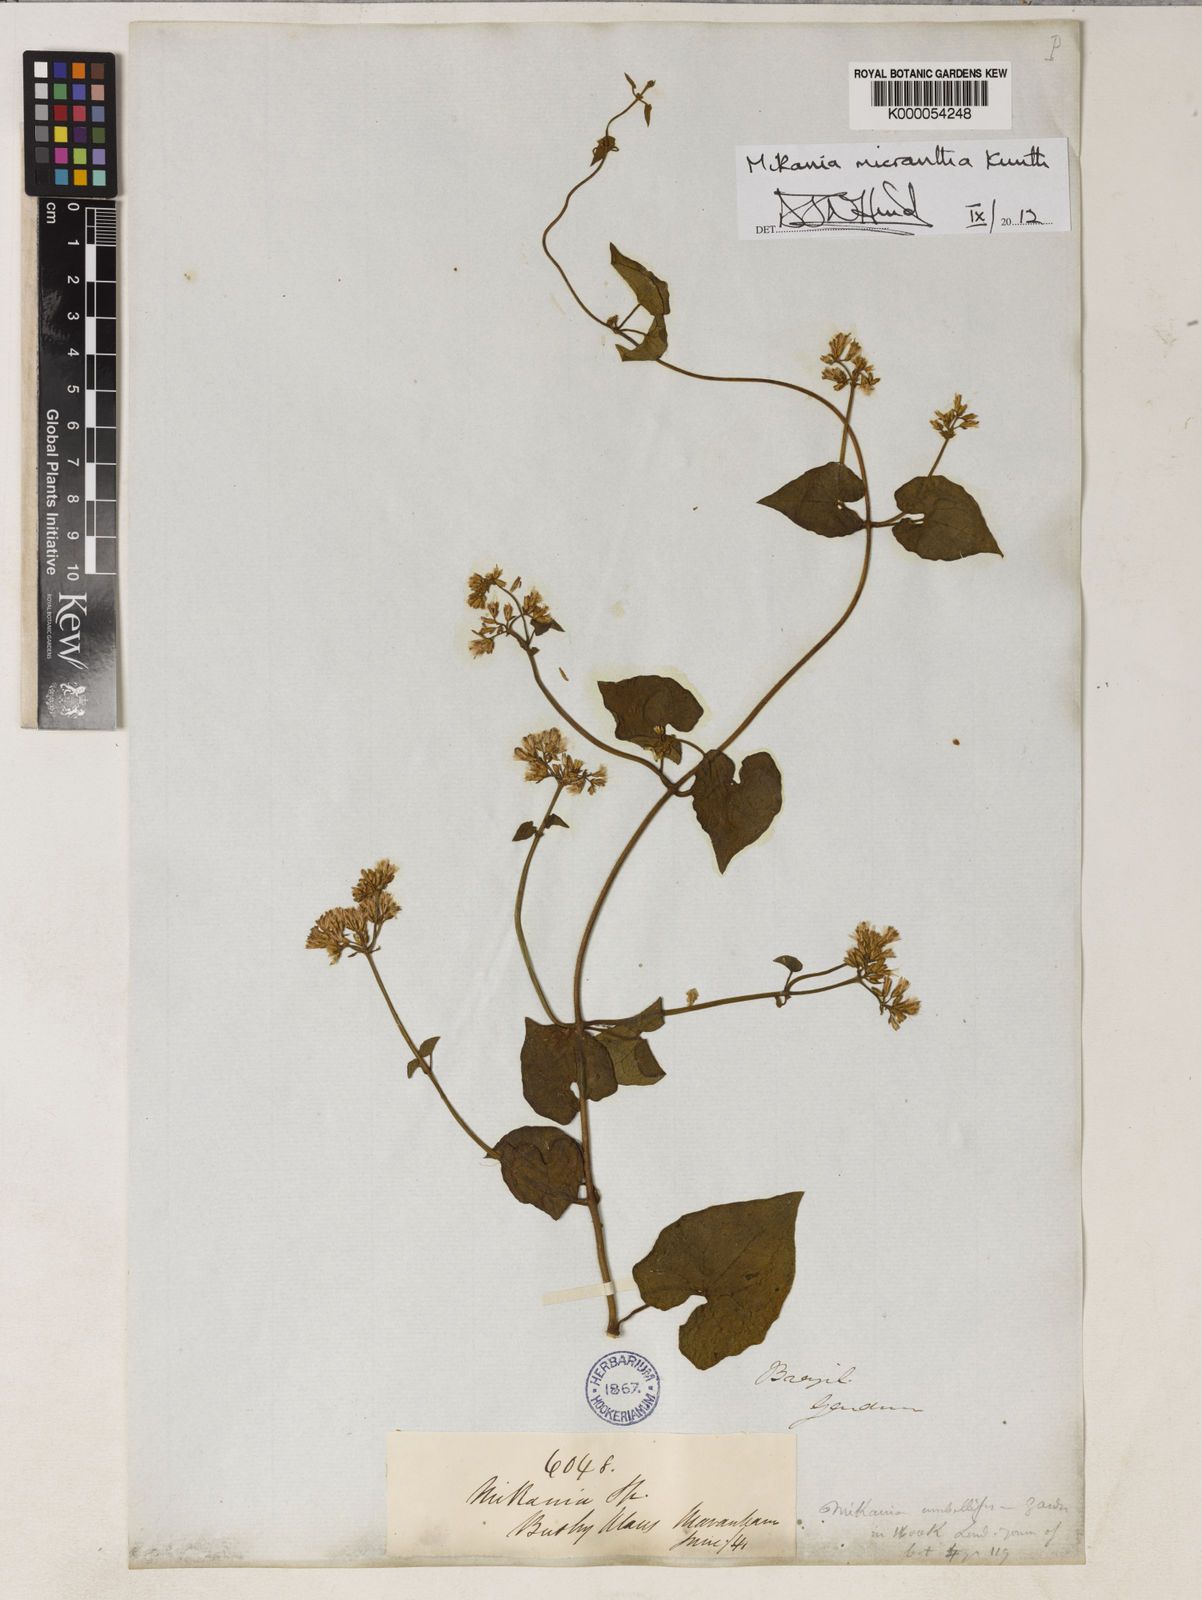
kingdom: Plantae
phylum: Tracheophyta
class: Magnoliopsida
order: Asterales
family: Asteraceae
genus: Mikania
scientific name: Mikania micrantha
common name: Mile-a-minute
